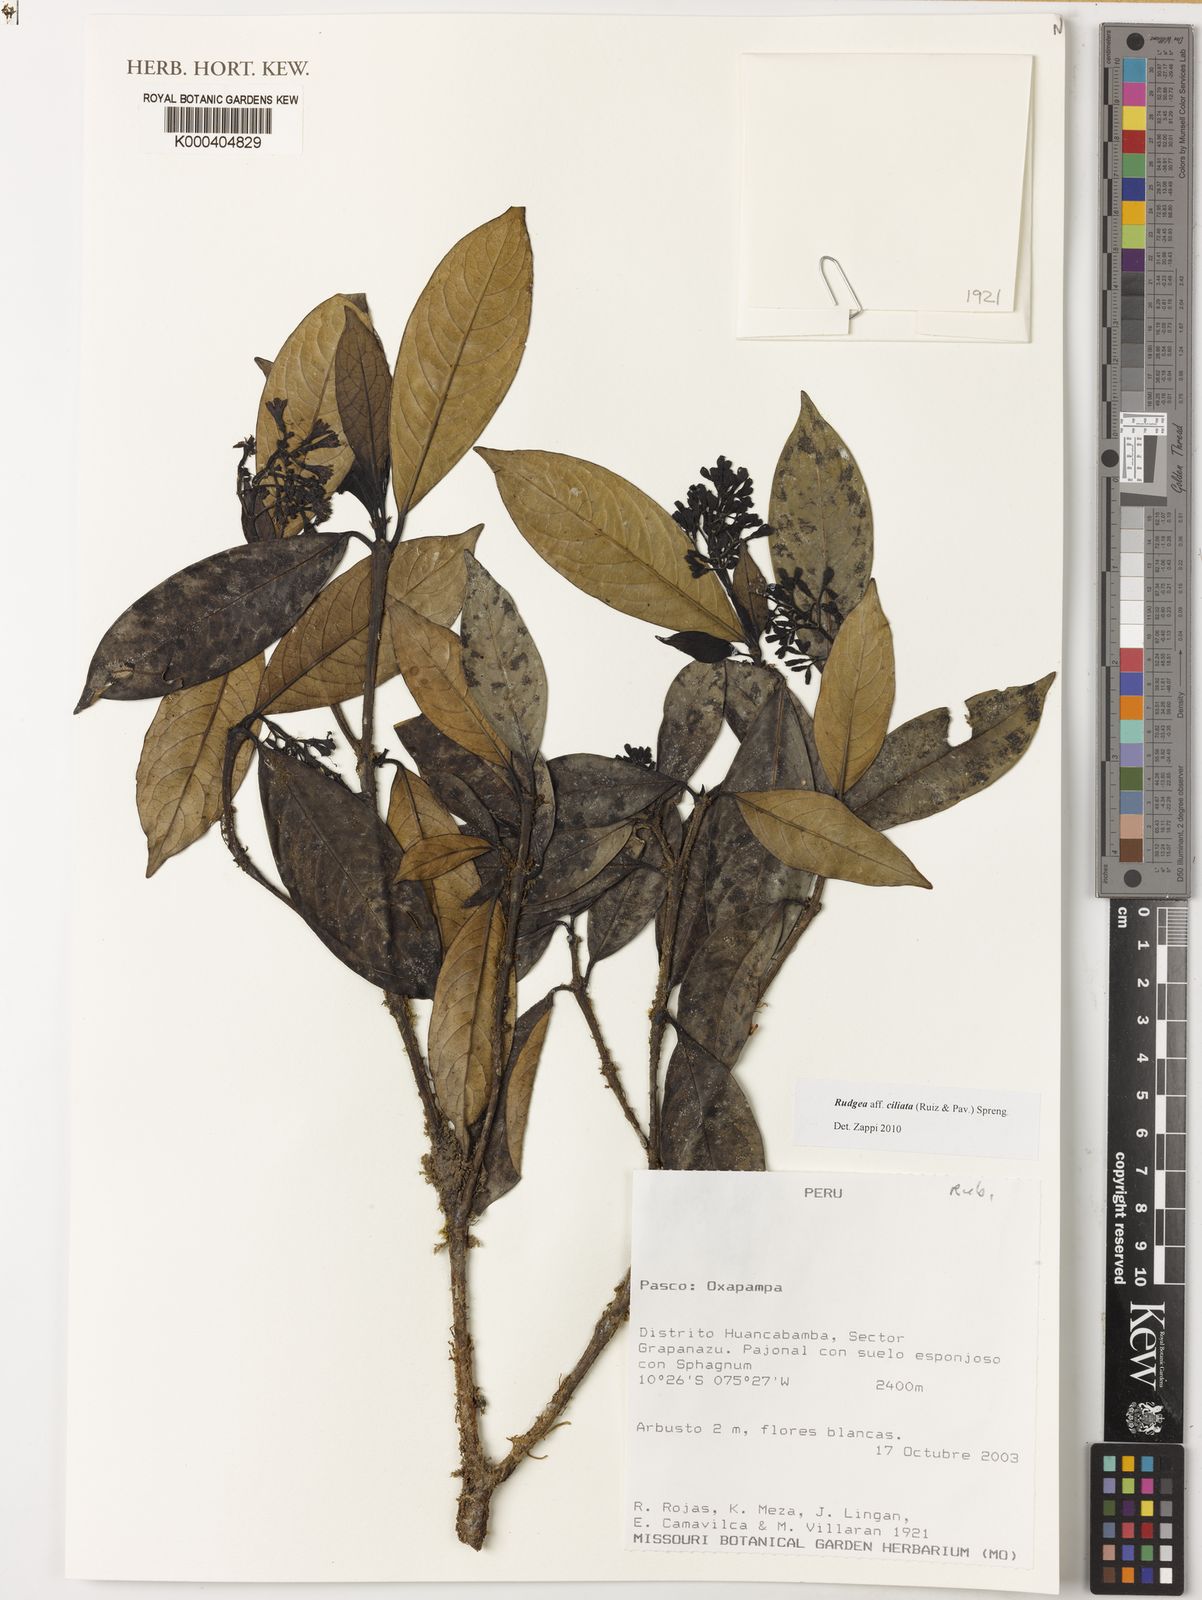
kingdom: Plantae
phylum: Tracheophyta
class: Magnoliopsida
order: Gentianales
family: Rubiaceae
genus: Rudgea
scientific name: Rudgea ciliata
